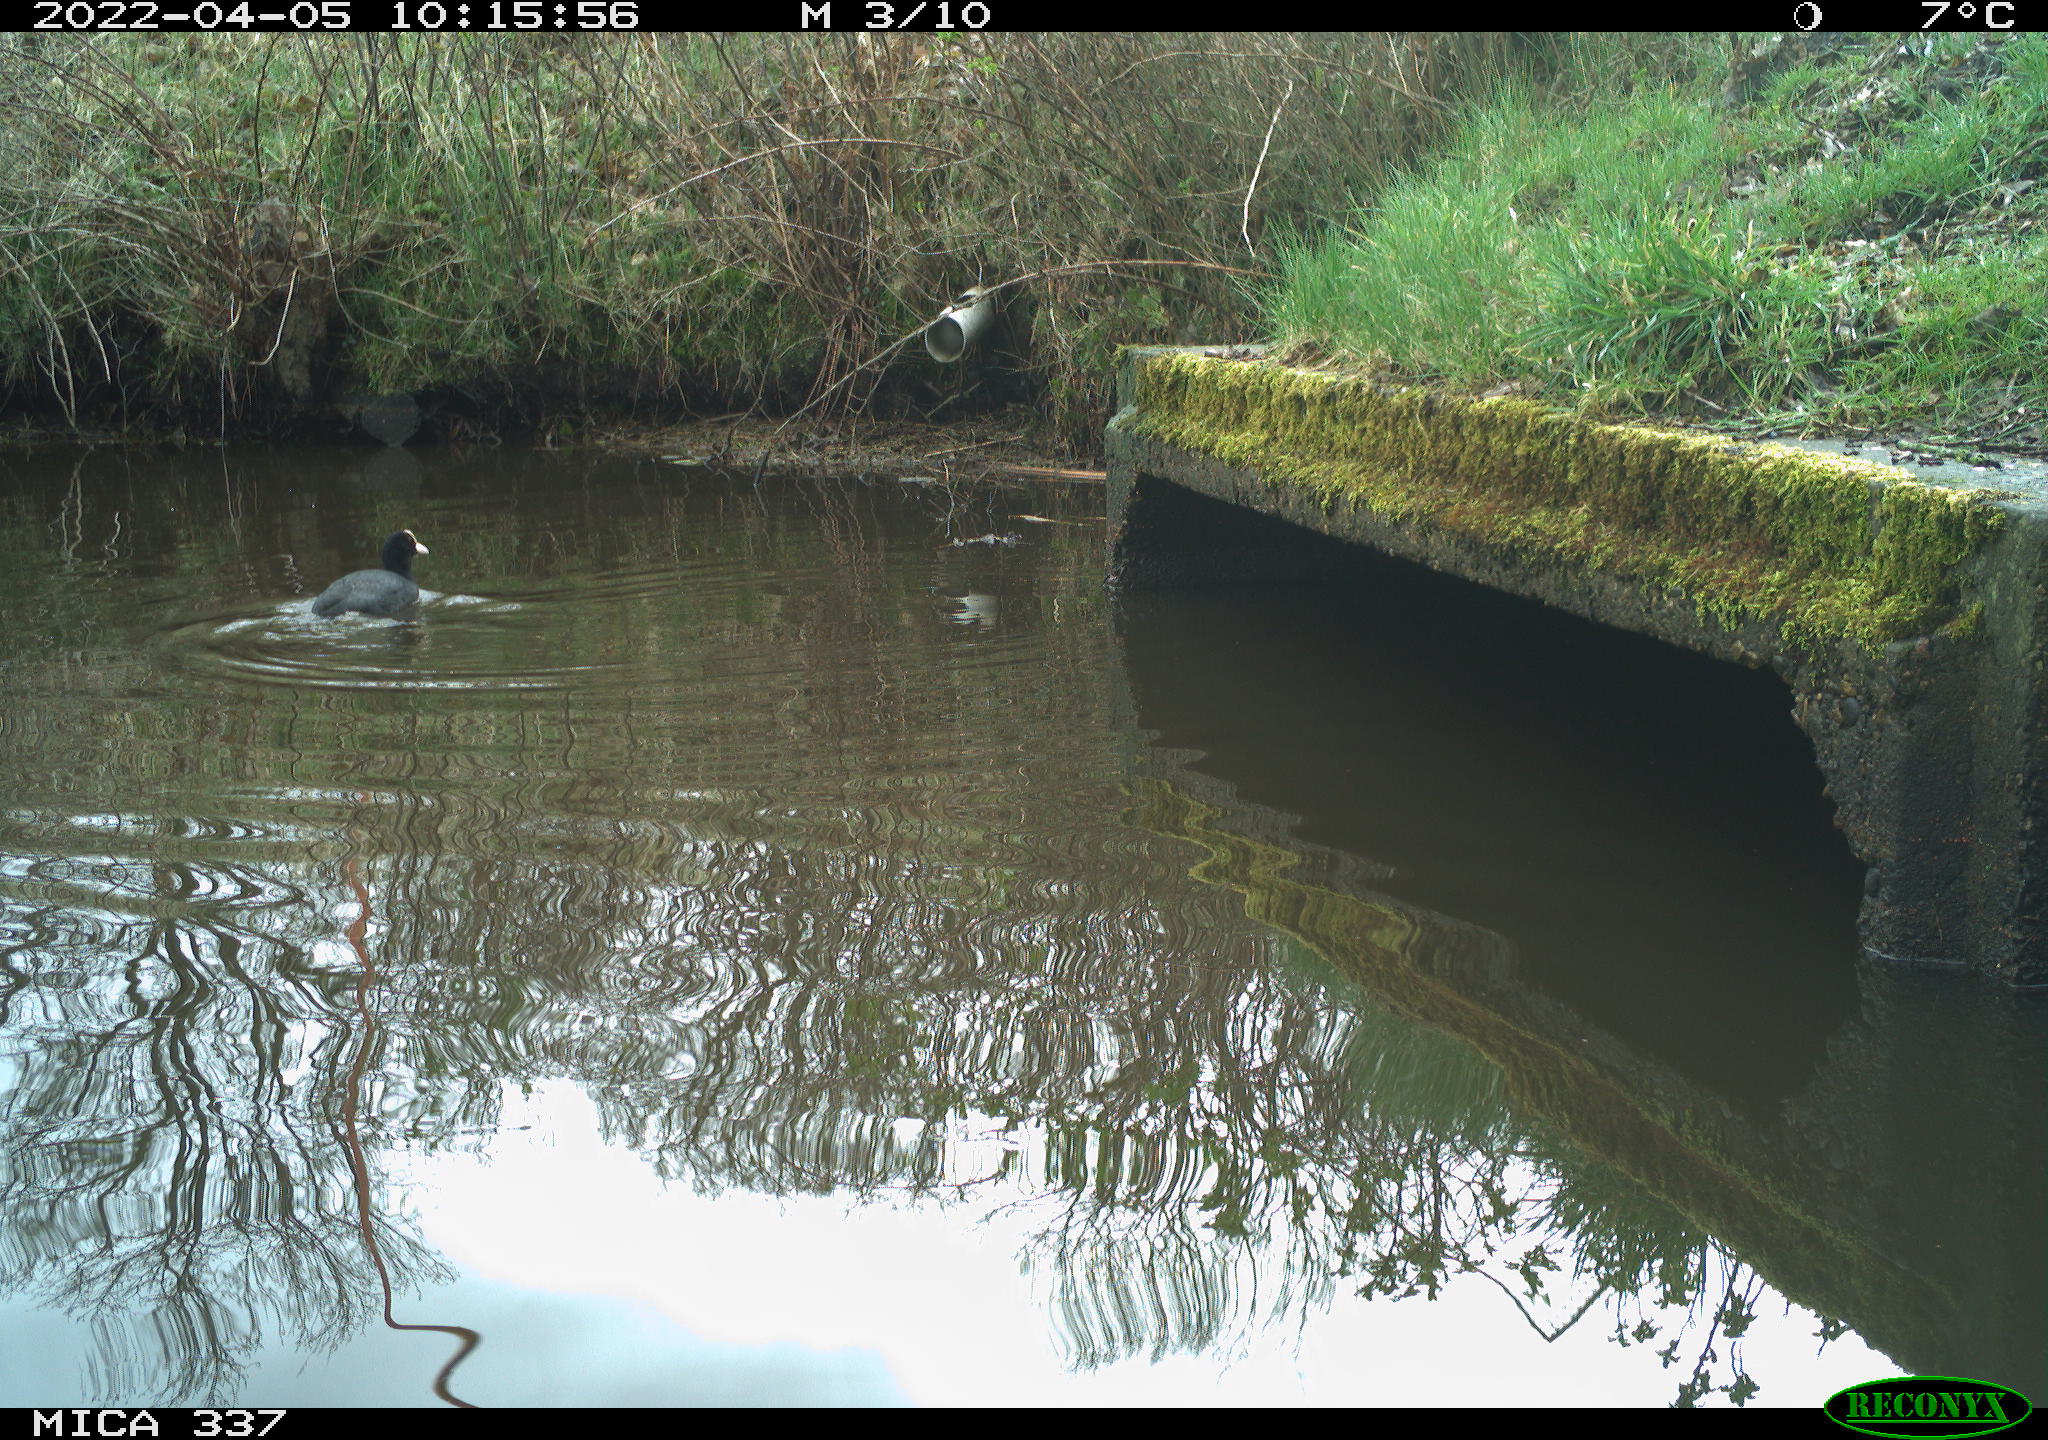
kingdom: Animalia
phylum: Chordata
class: Aves
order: Gruiformes
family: Rallidae
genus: Fulica
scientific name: Fulica atra
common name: Eurasian coot
